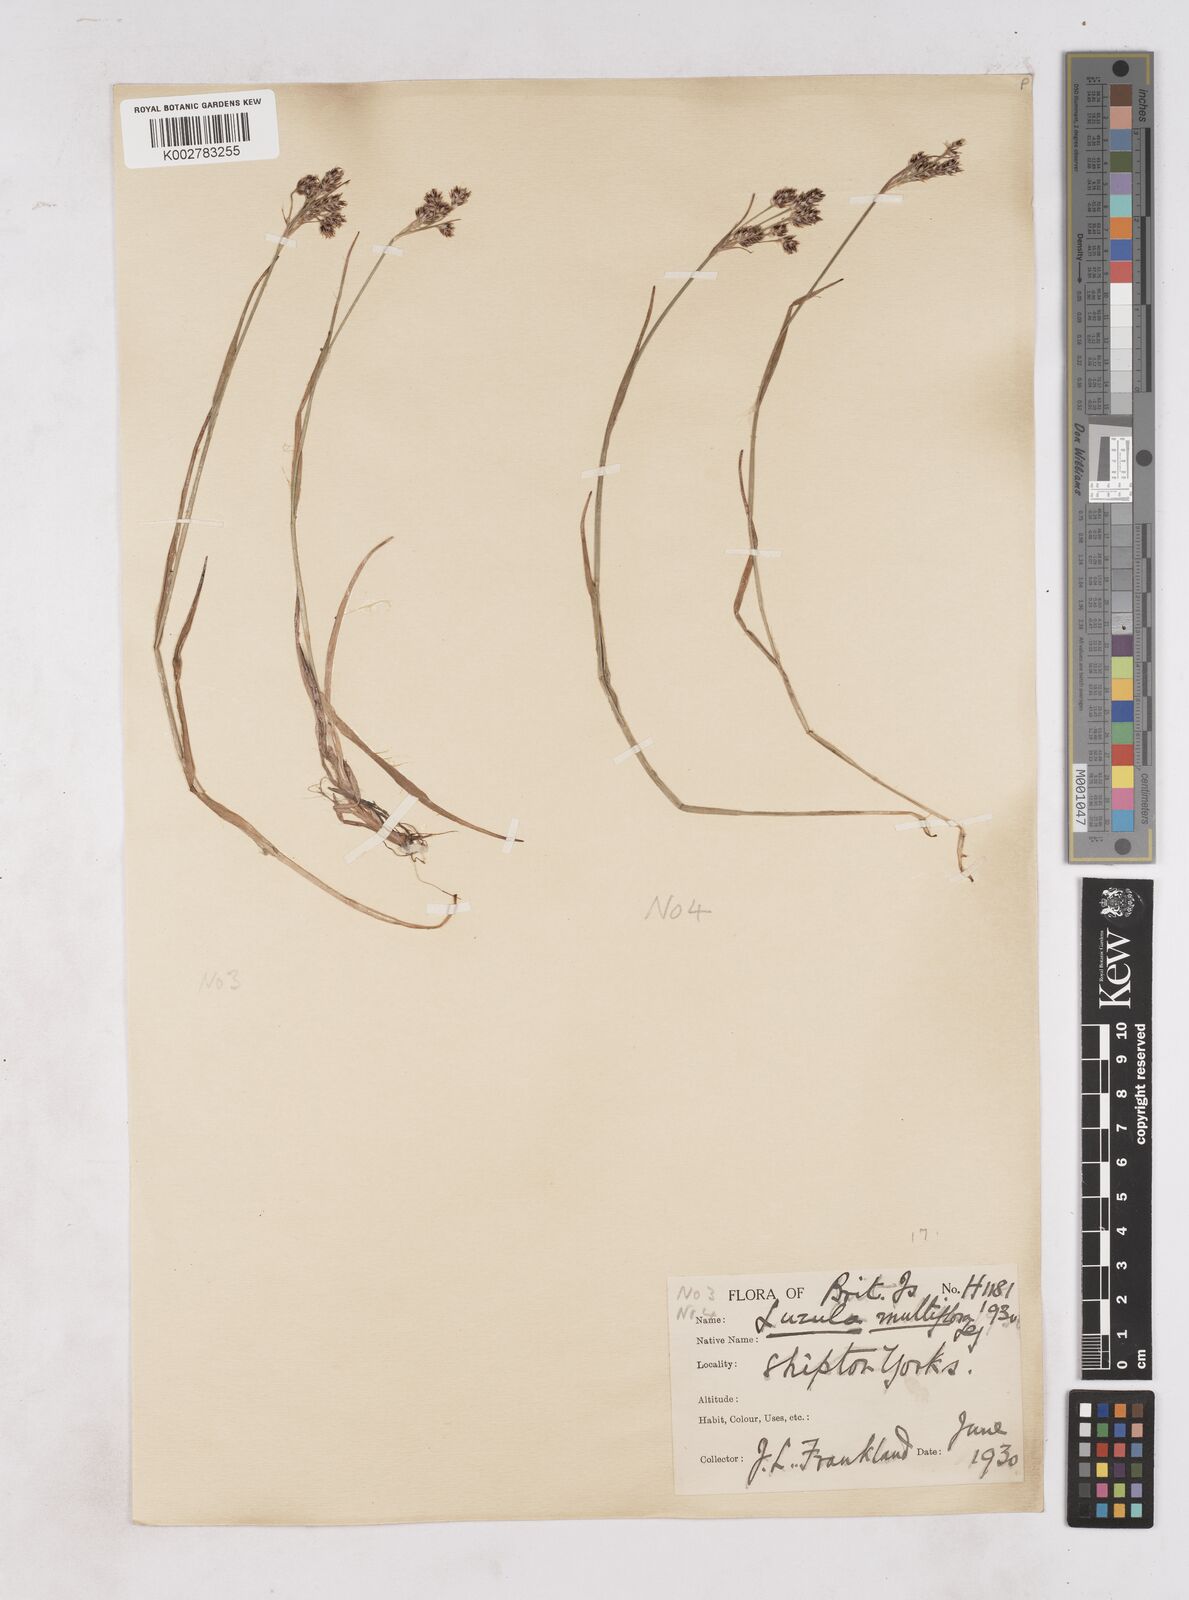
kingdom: Plantae
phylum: Tracheophyta
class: Liliopsida
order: Poales
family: Juncaceae
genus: Luzula
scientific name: Luzula multiflora
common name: Heath wood-rush
